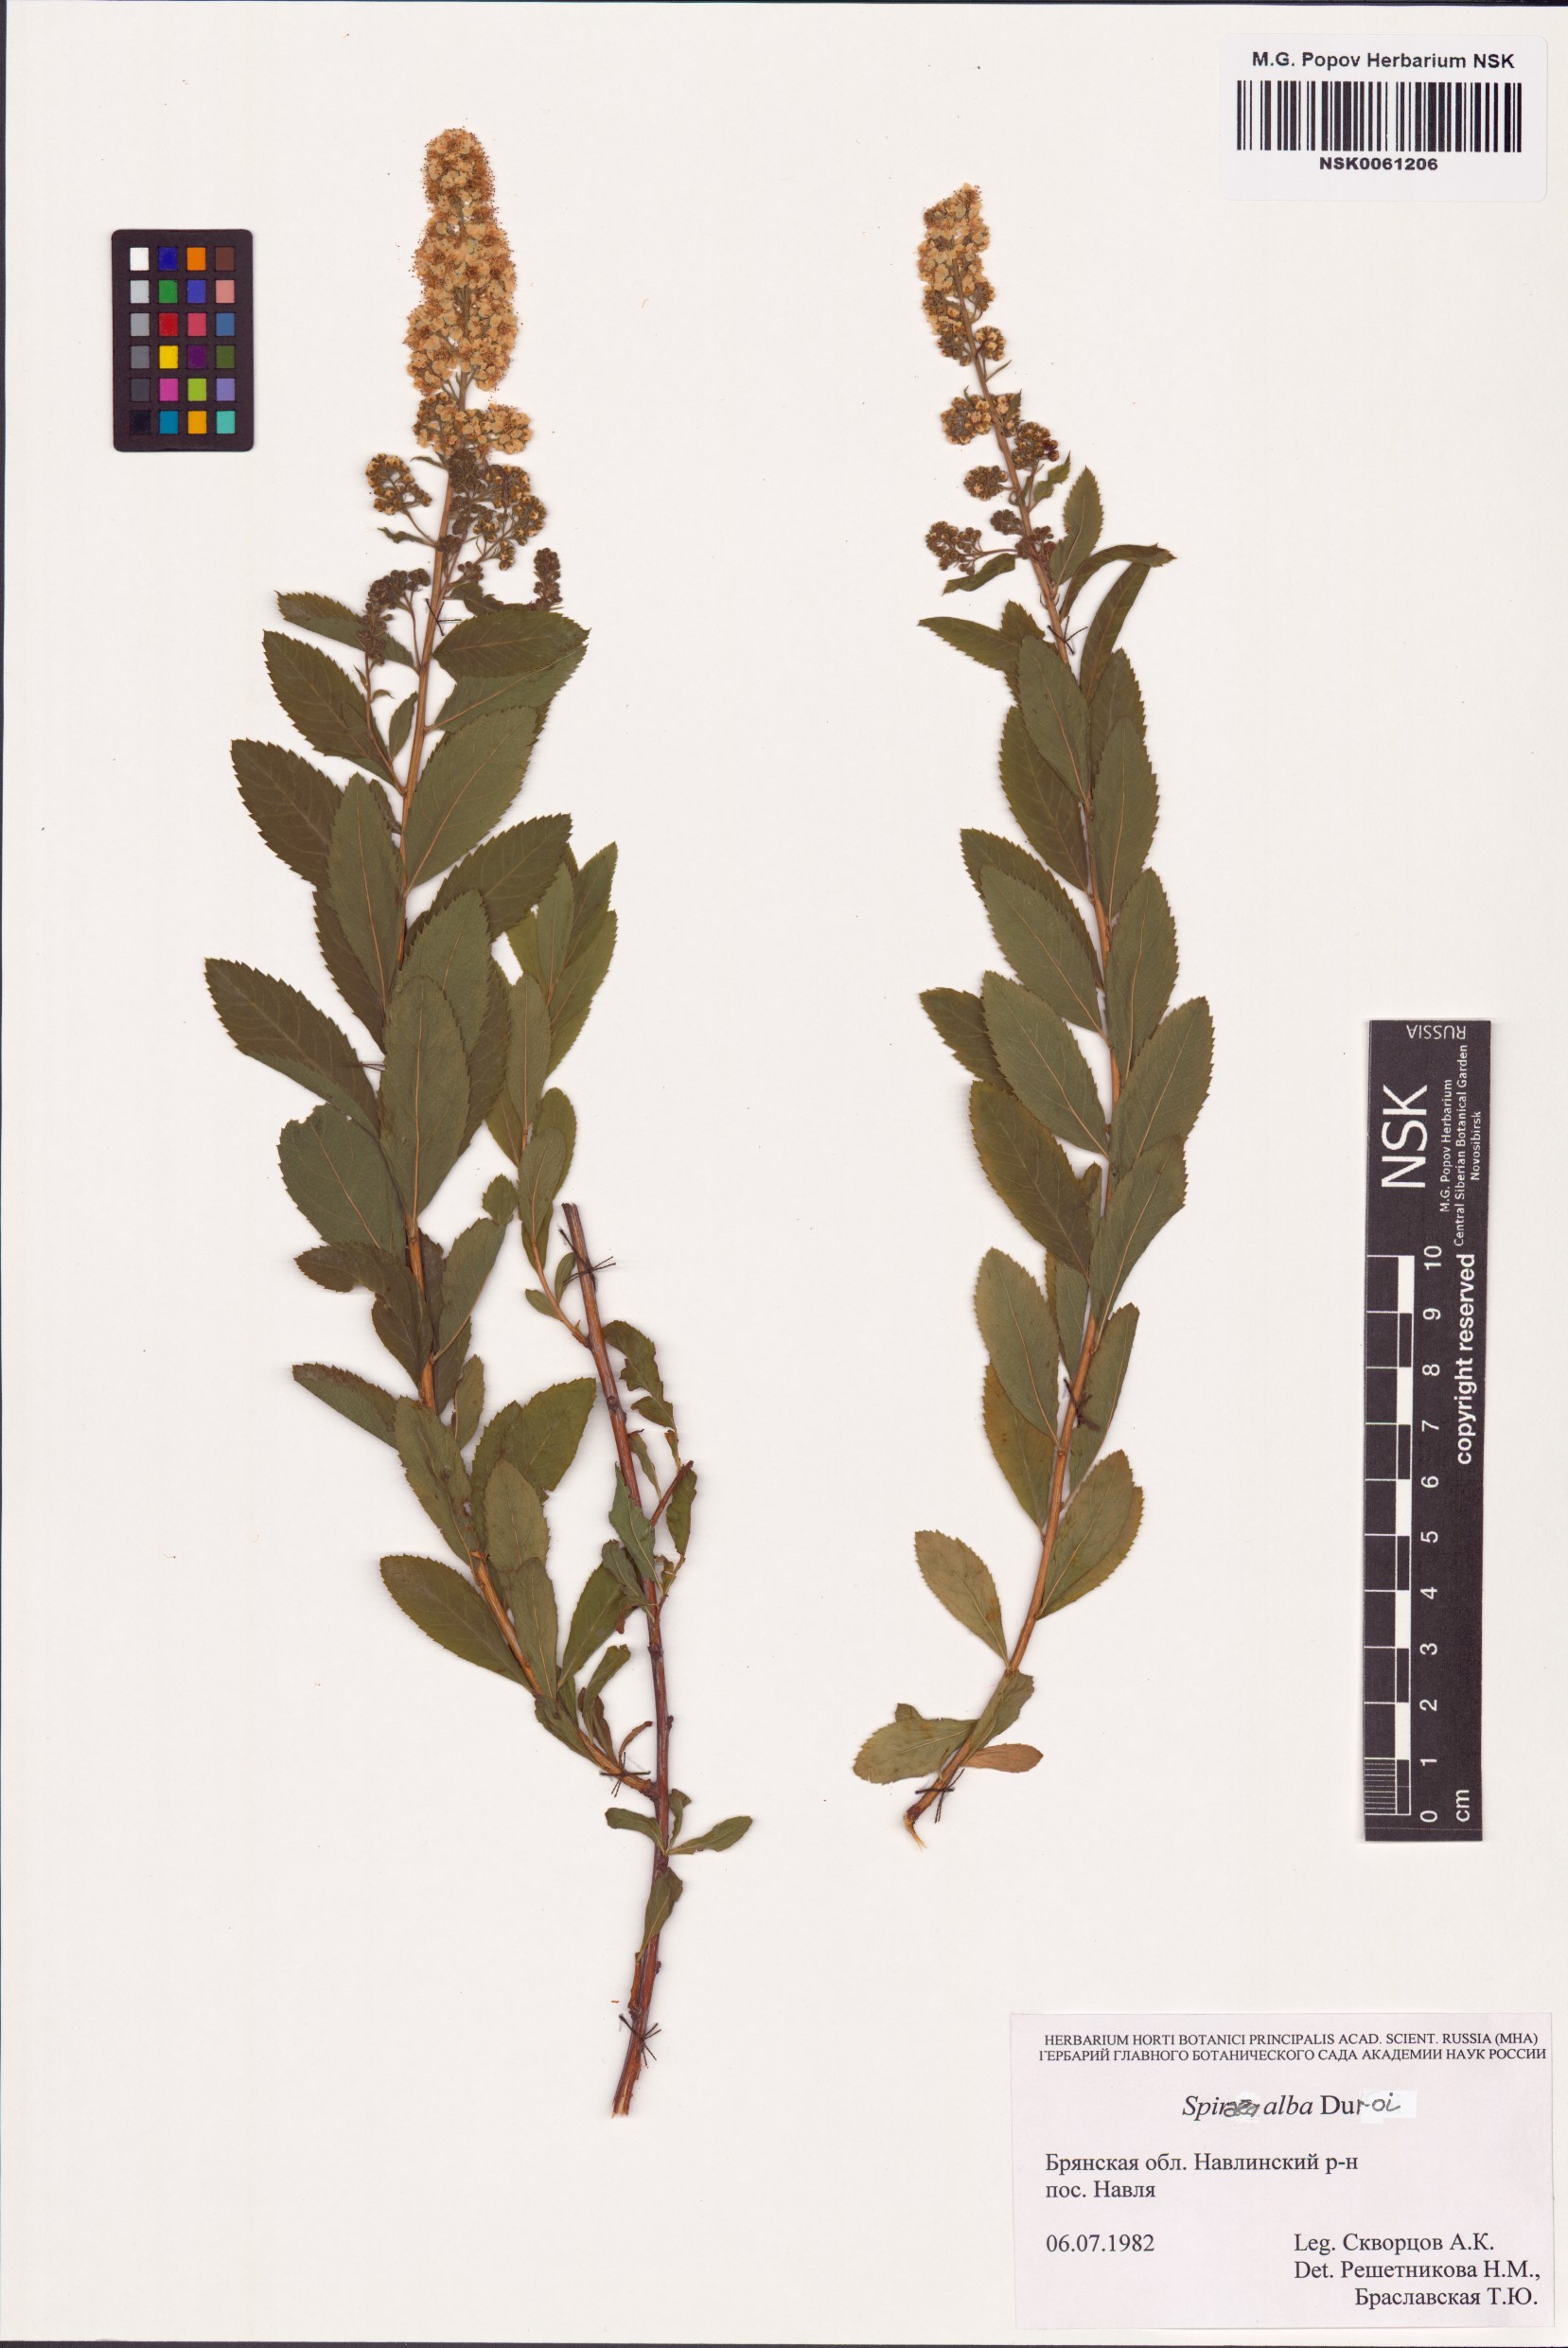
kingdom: Plantae
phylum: Tracheophyta
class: Magnoliopsida
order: Rosales
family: Rosaceae
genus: Spiraea
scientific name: Spiraea alba
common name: Pale bridewort
